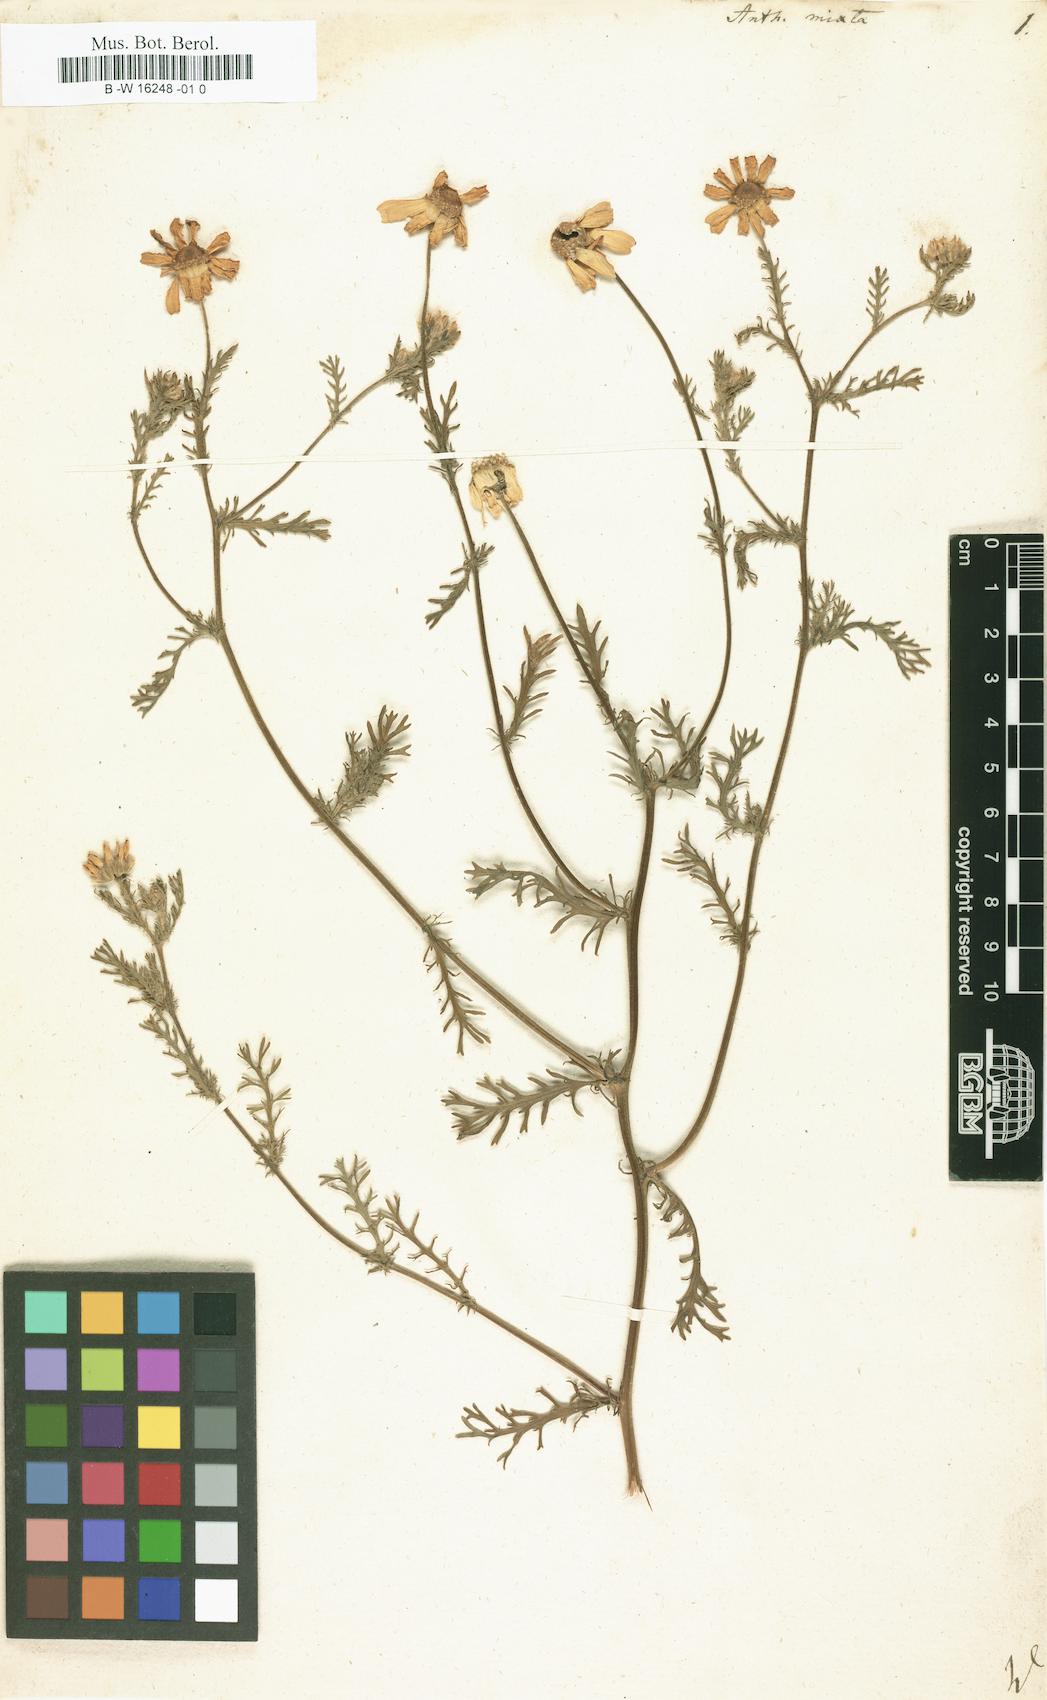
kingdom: Plantae
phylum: Tracheophyta
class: Magnoliopsida
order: Asterales
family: Asteraceae
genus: Cladanthus
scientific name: Cladanthus mixtus
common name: Weedy dogfennel
